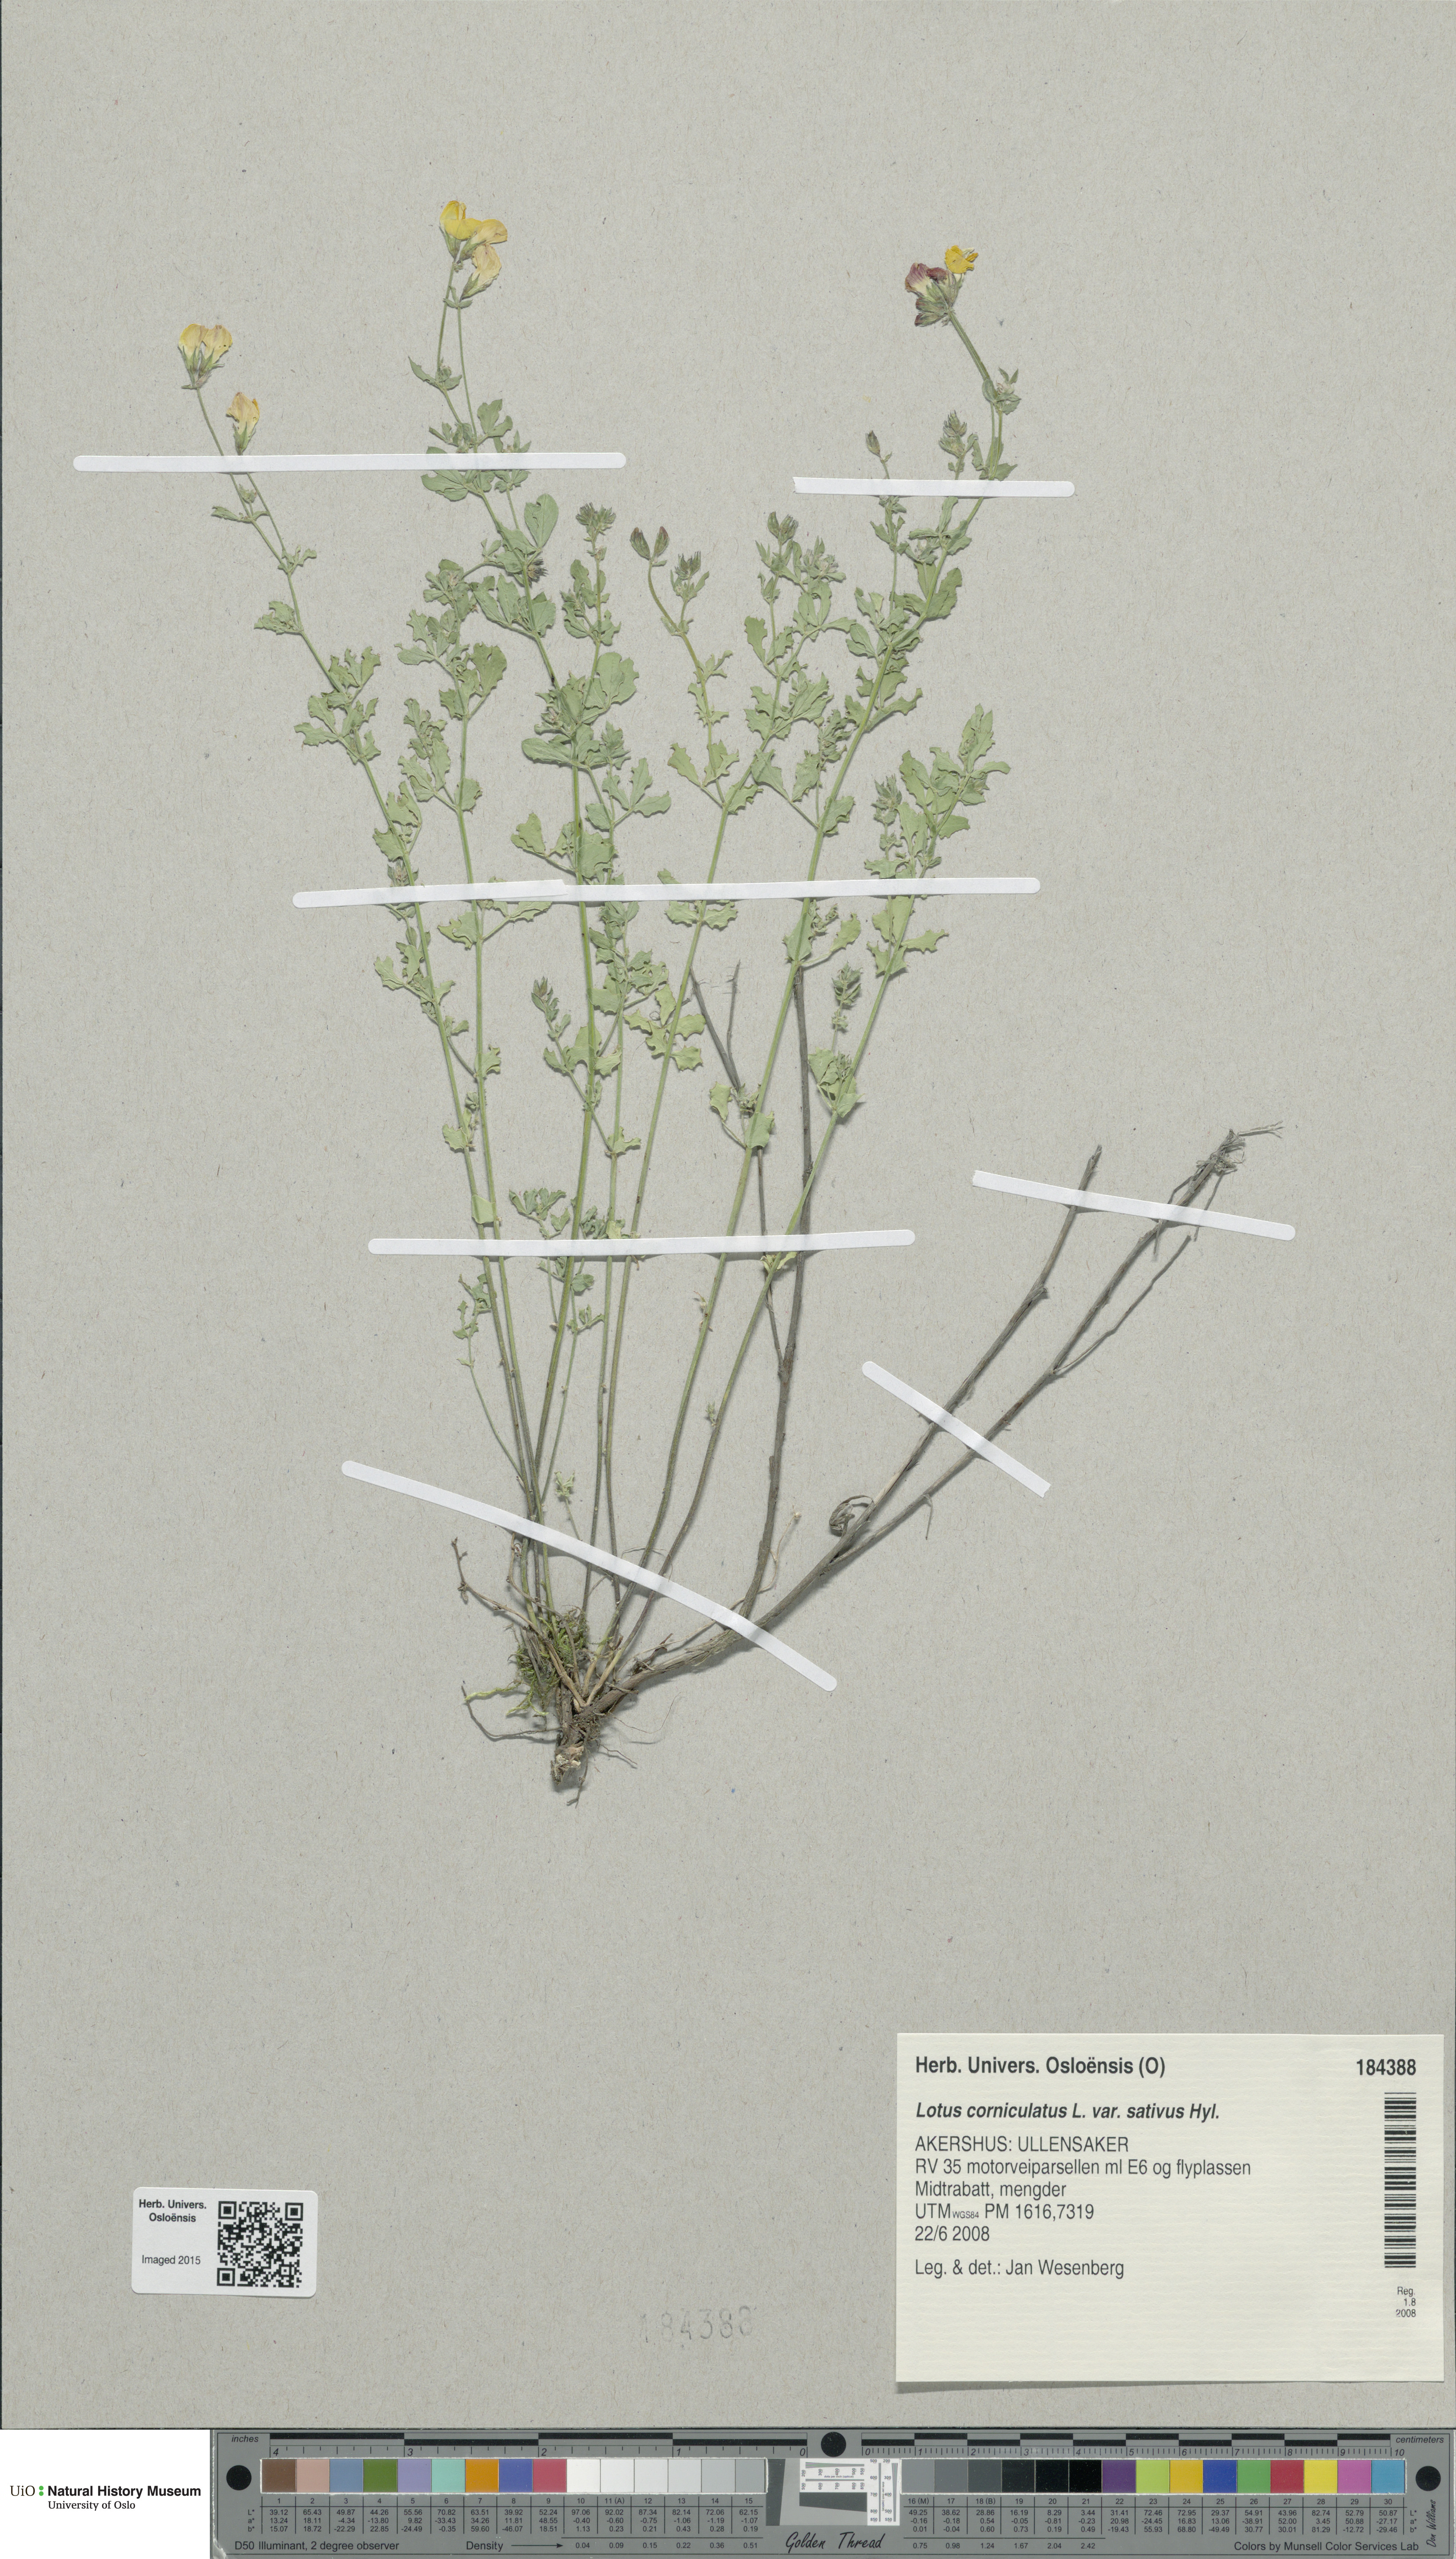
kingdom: Plantae
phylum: Tracheophyta
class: Magnoliopsida
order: Fabales
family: Fabaceae
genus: Lotus
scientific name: Lotus corniculatus
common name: Common bird's-foot-trefoil
